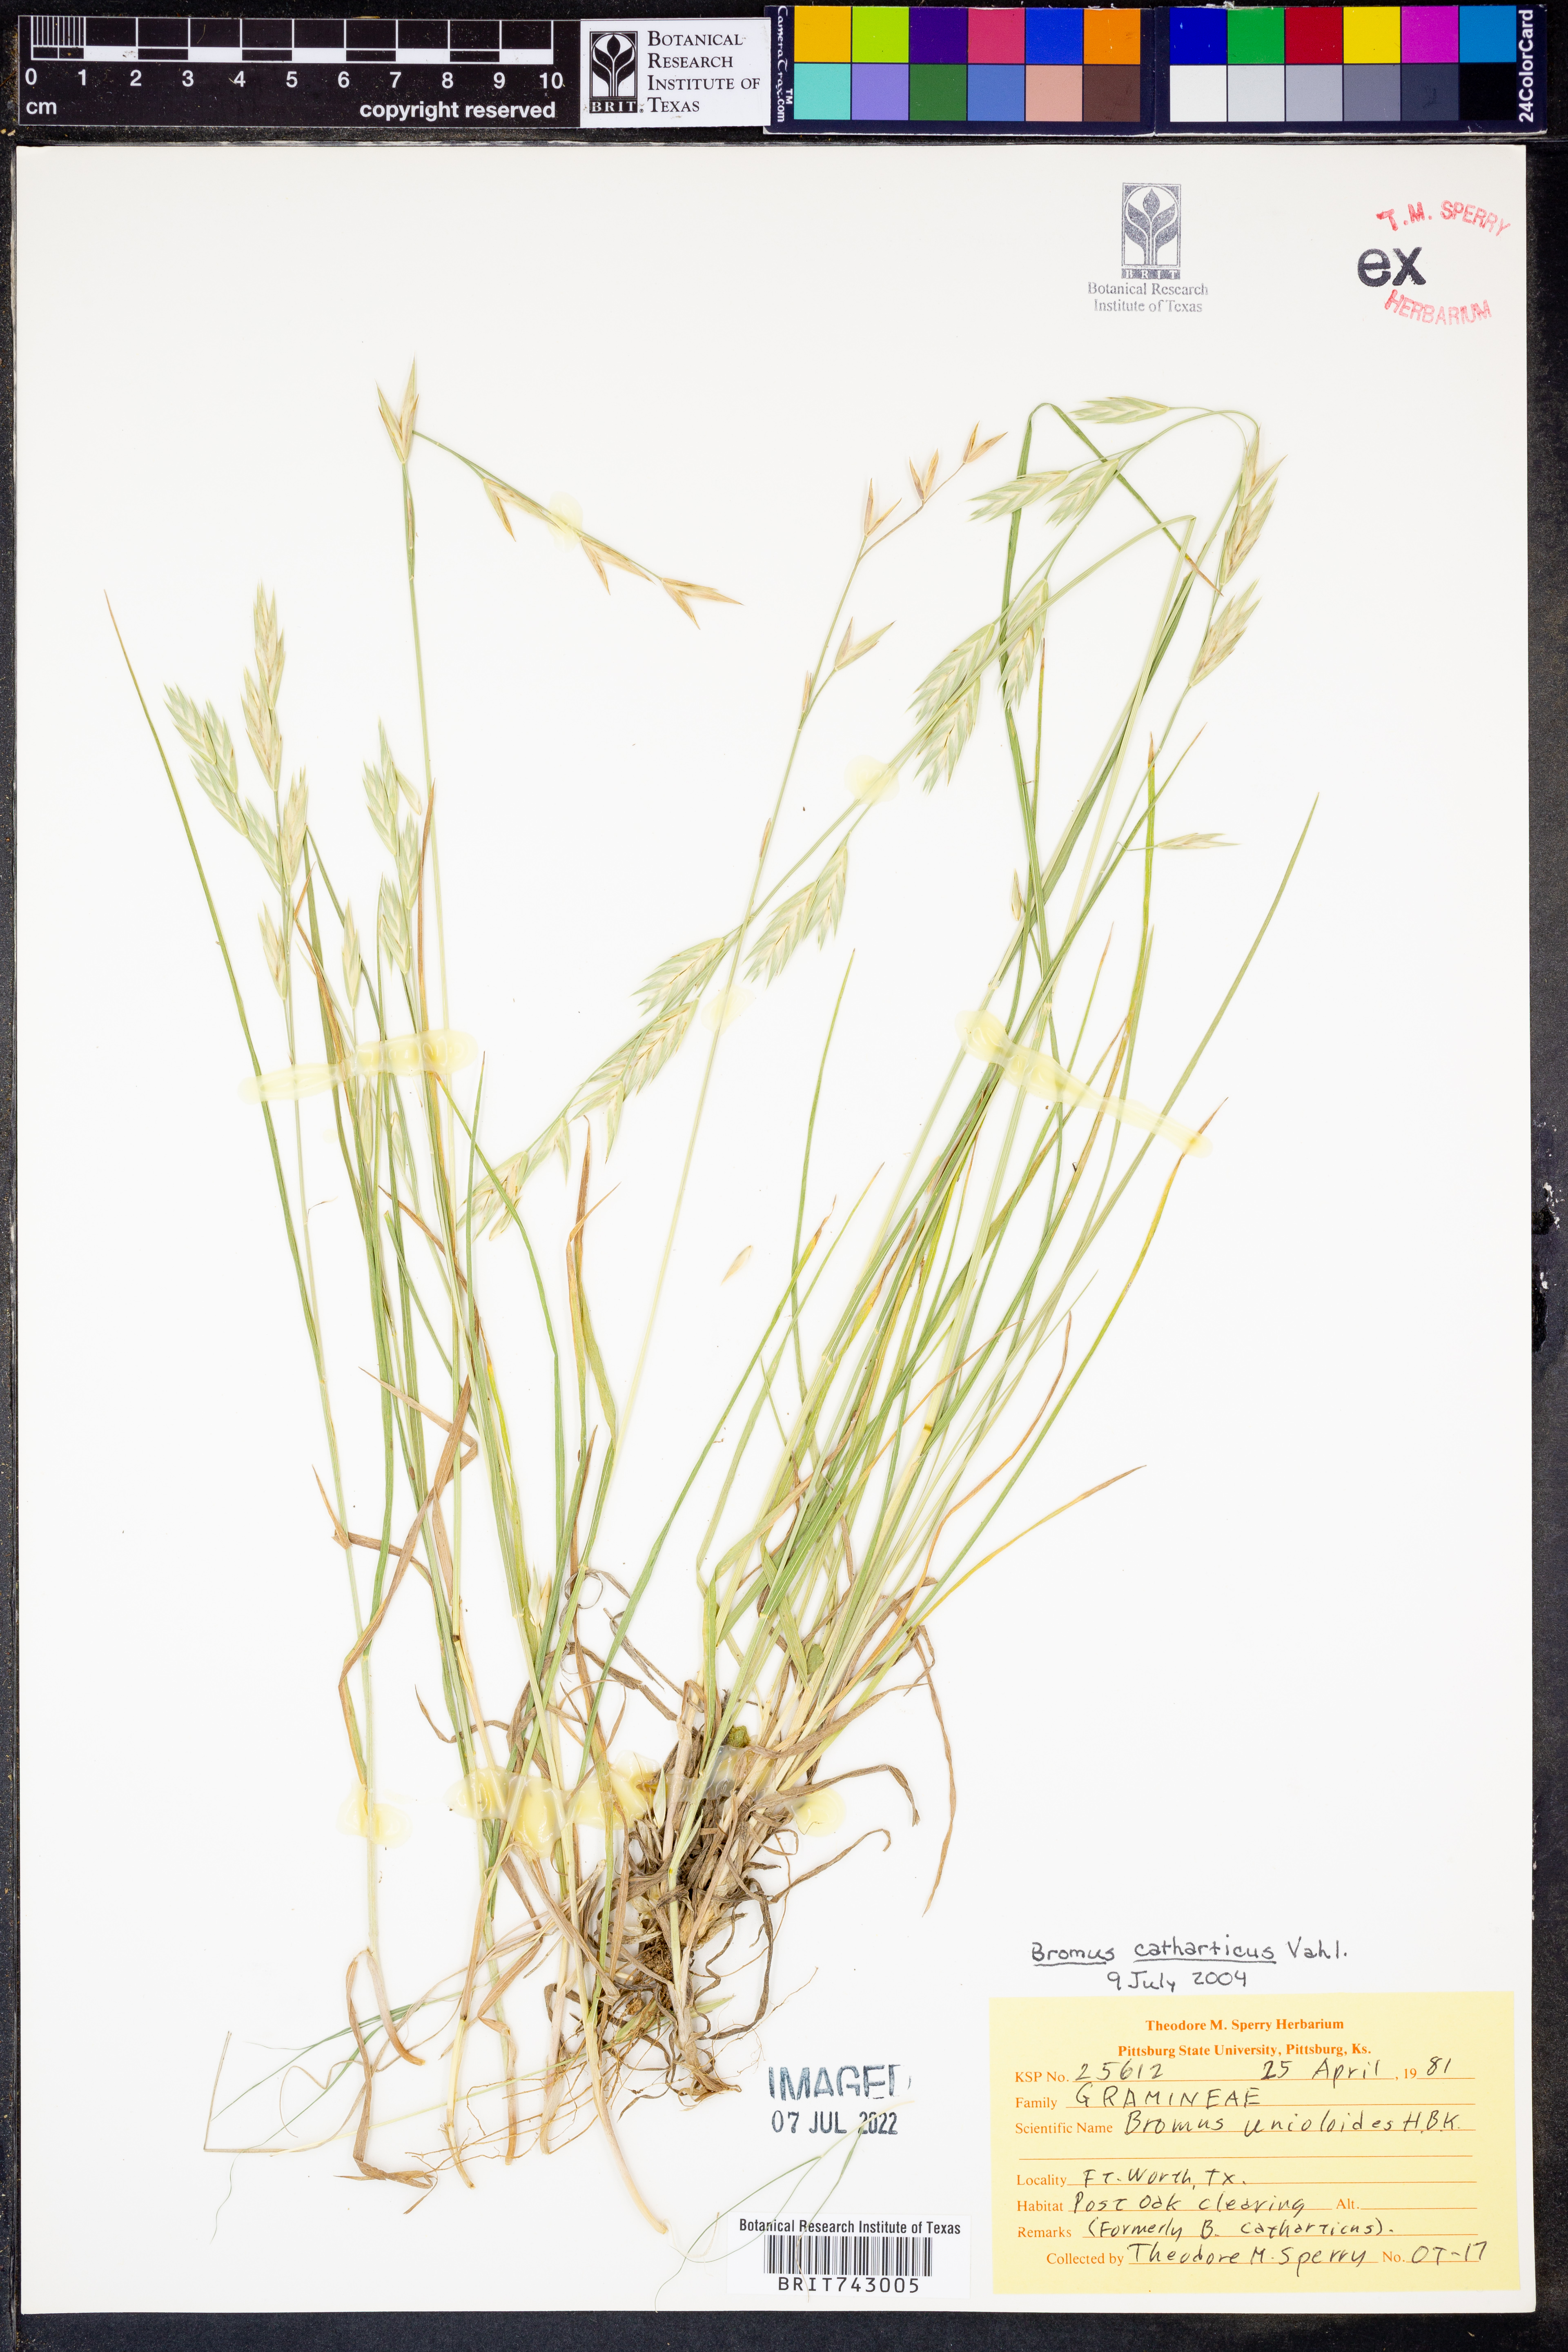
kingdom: Plantae
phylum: Tracheophyta
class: Liliopsida
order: Poales
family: Poaceae
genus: Bromus
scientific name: Bromus catharticus
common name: Rescuegrass
